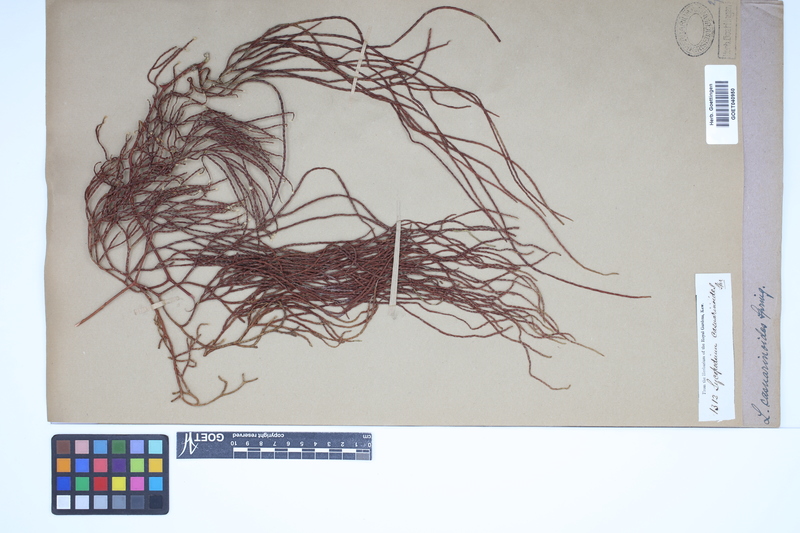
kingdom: Plantae
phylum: Tracheophyta
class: Lycopodiopsida
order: Lycopodiales
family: Lycopodiaceae
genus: Lycopodiastrum
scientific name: Lycopodiastrum casuarinoides
